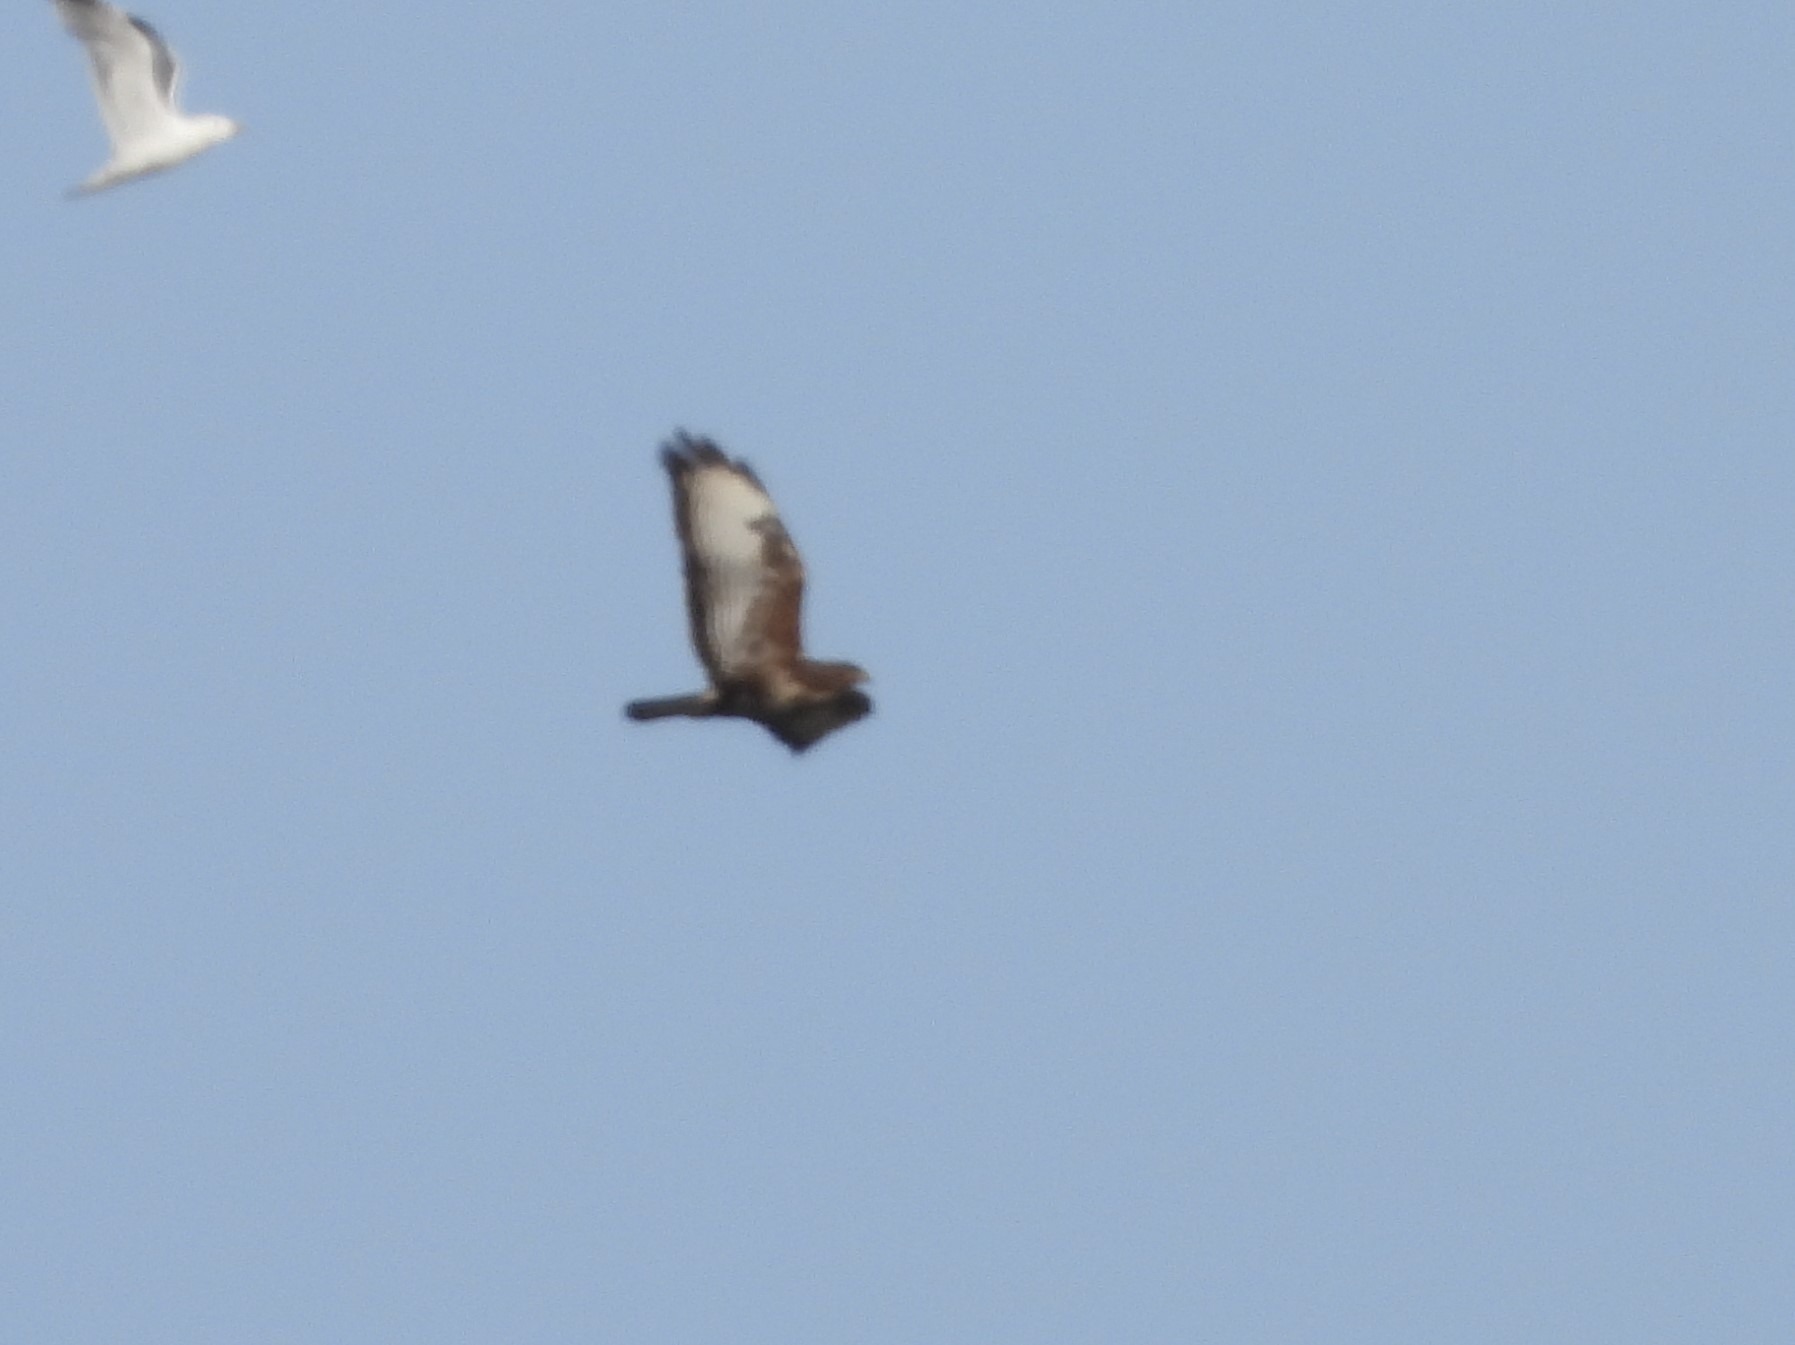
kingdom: Animalia
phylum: Chordata
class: Aves
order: Accipitriformes
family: Accipitridae
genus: Buteo
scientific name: Buteo buteo
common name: Musvåge
